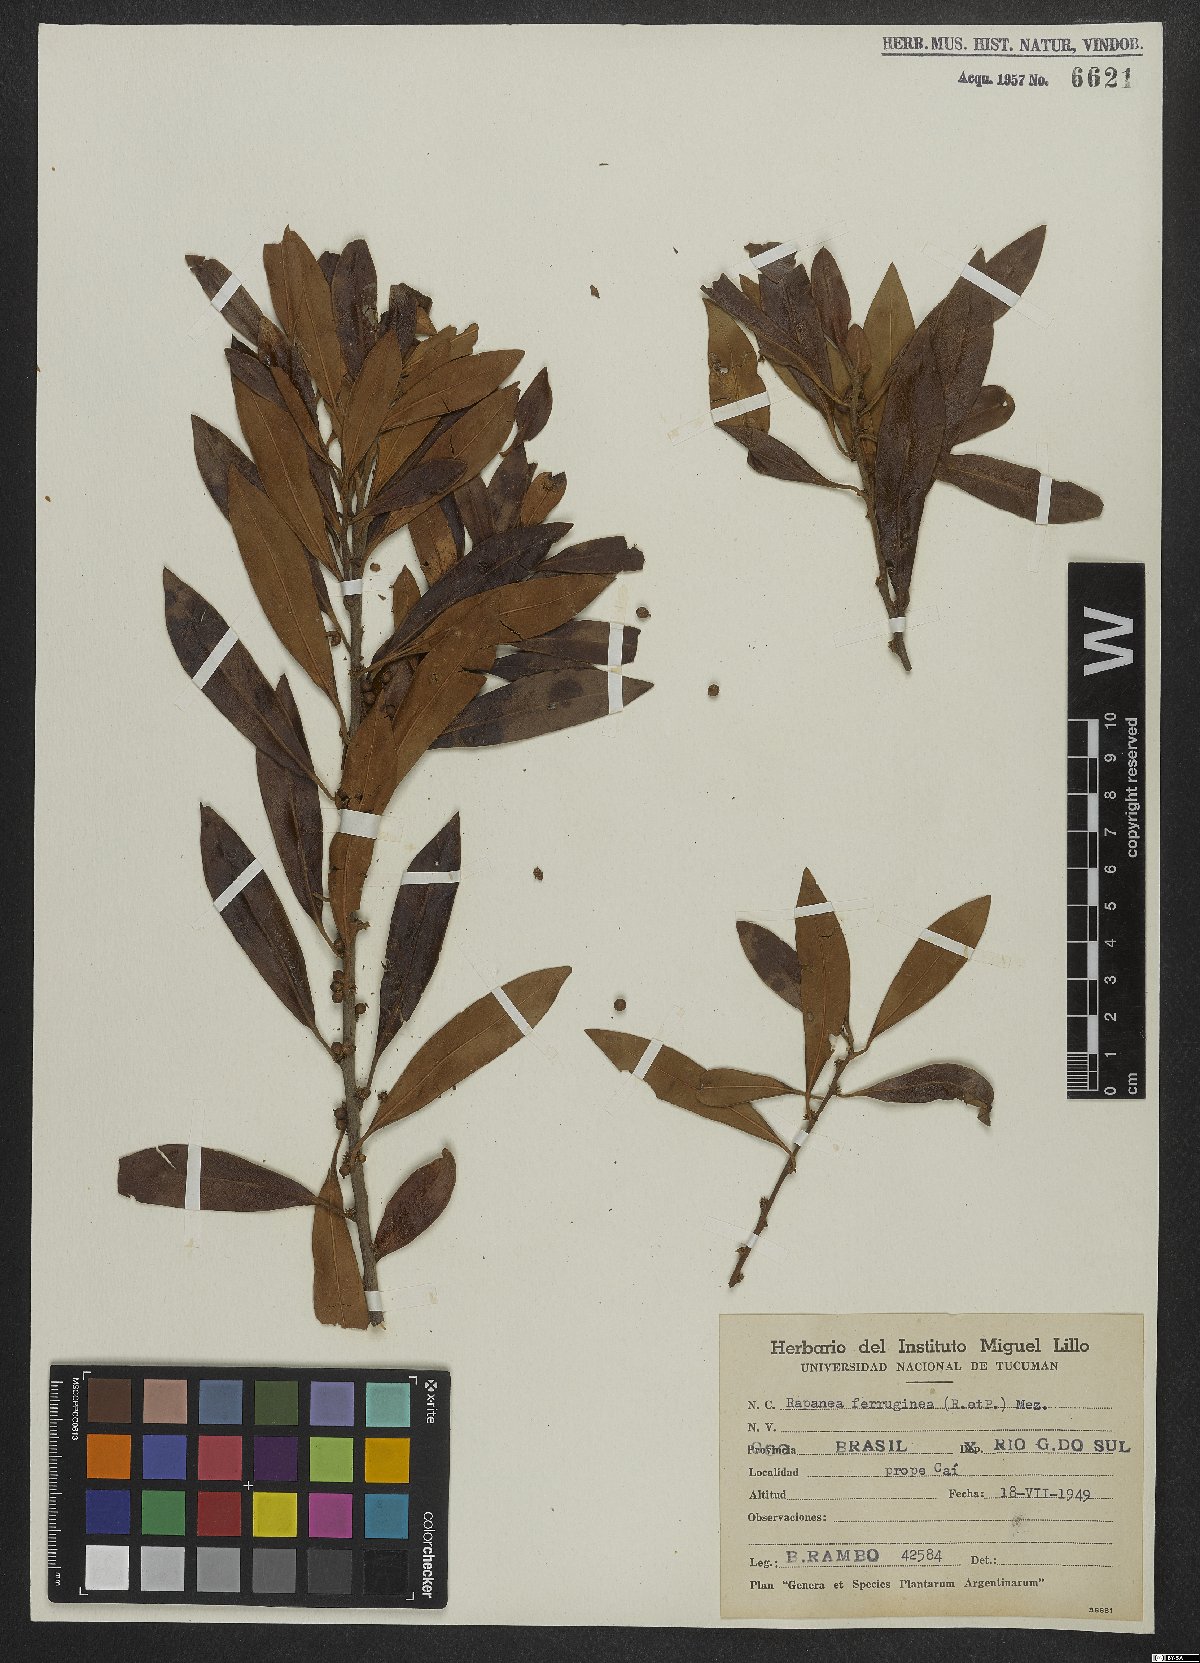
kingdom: Plantae
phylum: Tracheophyta
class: Magnoliopsida
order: Ericales
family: Primulaceae
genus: Myrsine
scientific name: Myrsine coriacea
